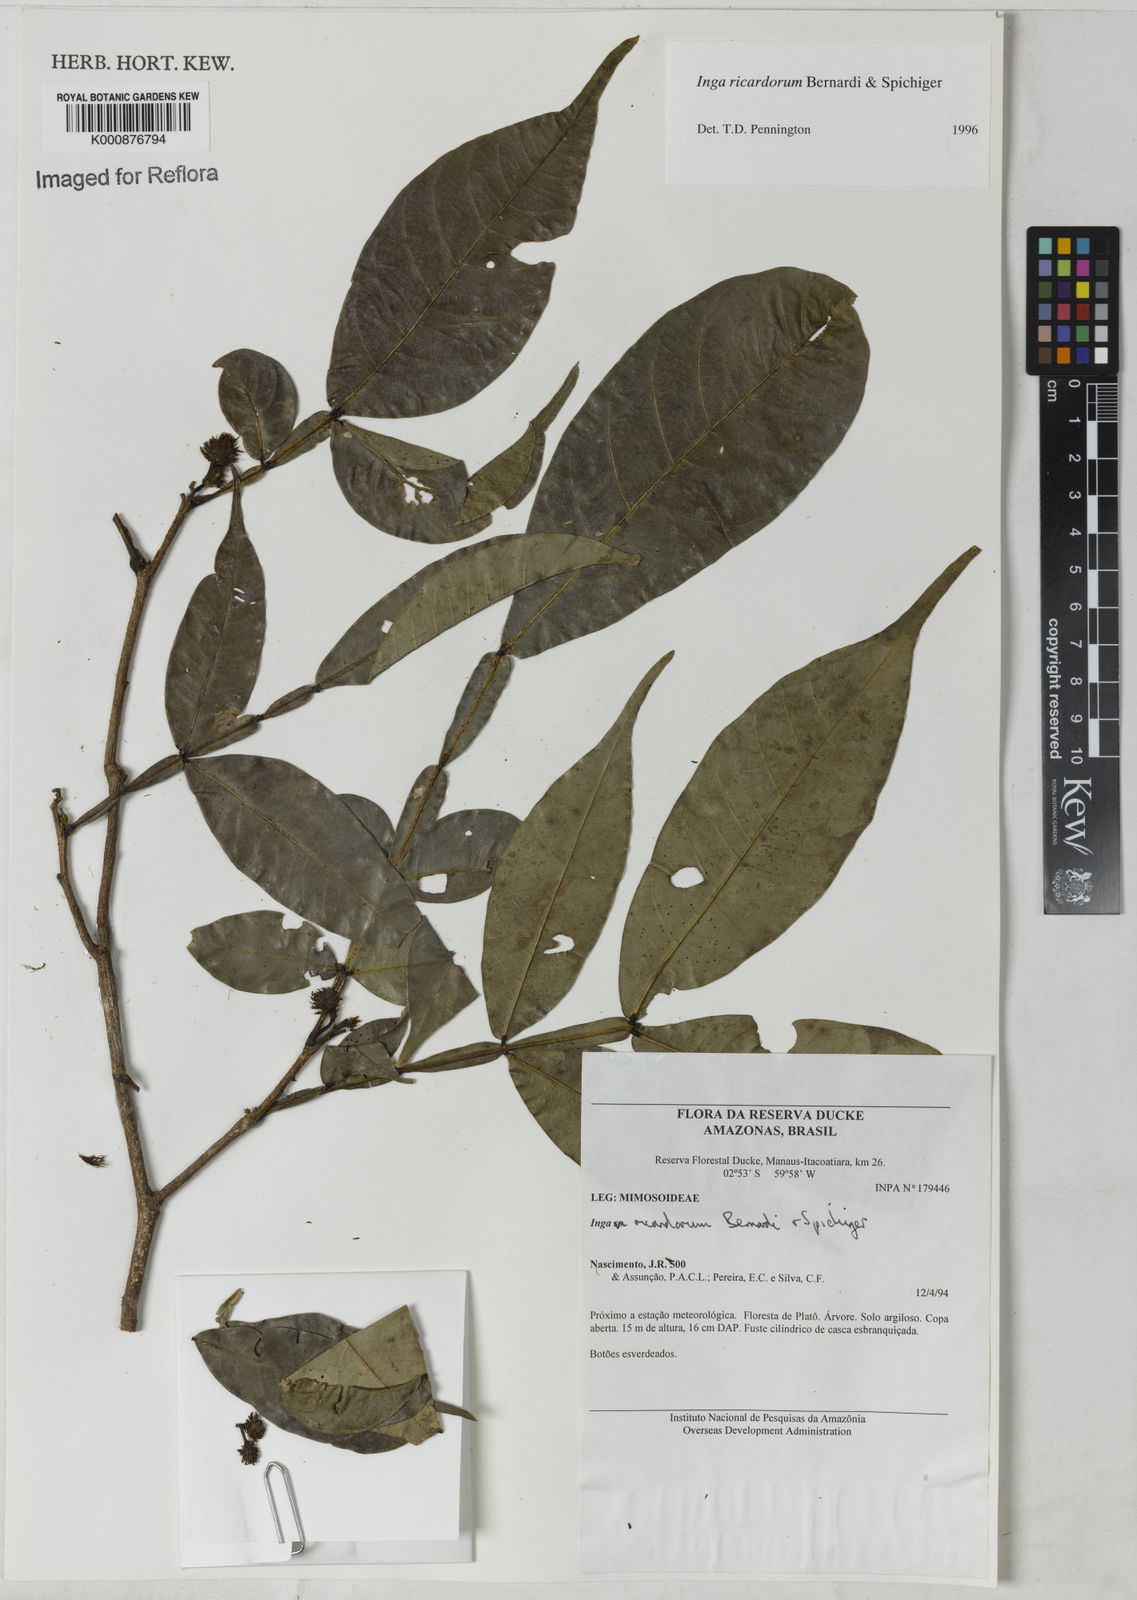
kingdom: Plantae
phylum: Tracheophyta
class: Magnoliopsida
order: Fabales
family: Fabaceae
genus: Inga
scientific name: Inga chrysantha
